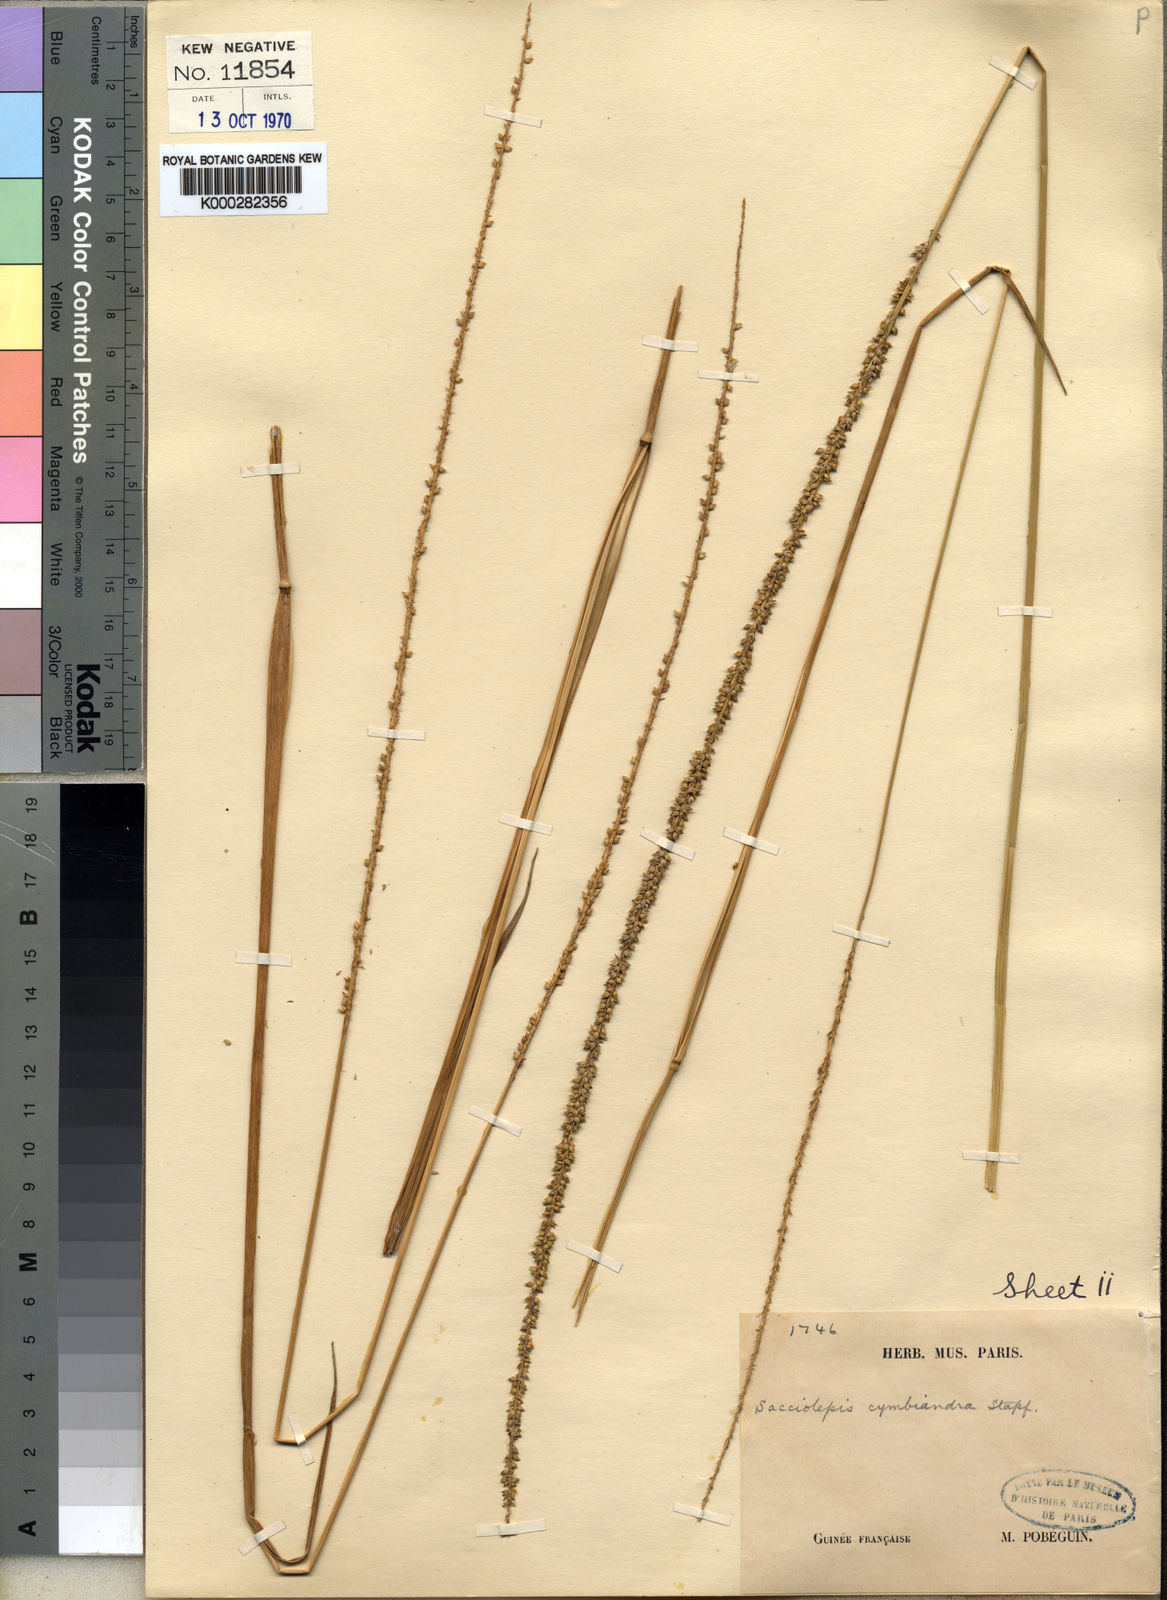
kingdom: Plantae
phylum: Tracheophyta
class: Liliopsida
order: Poales
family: Poaceae
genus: Sacciolepis
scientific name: Sacciolepis cymbiandra
